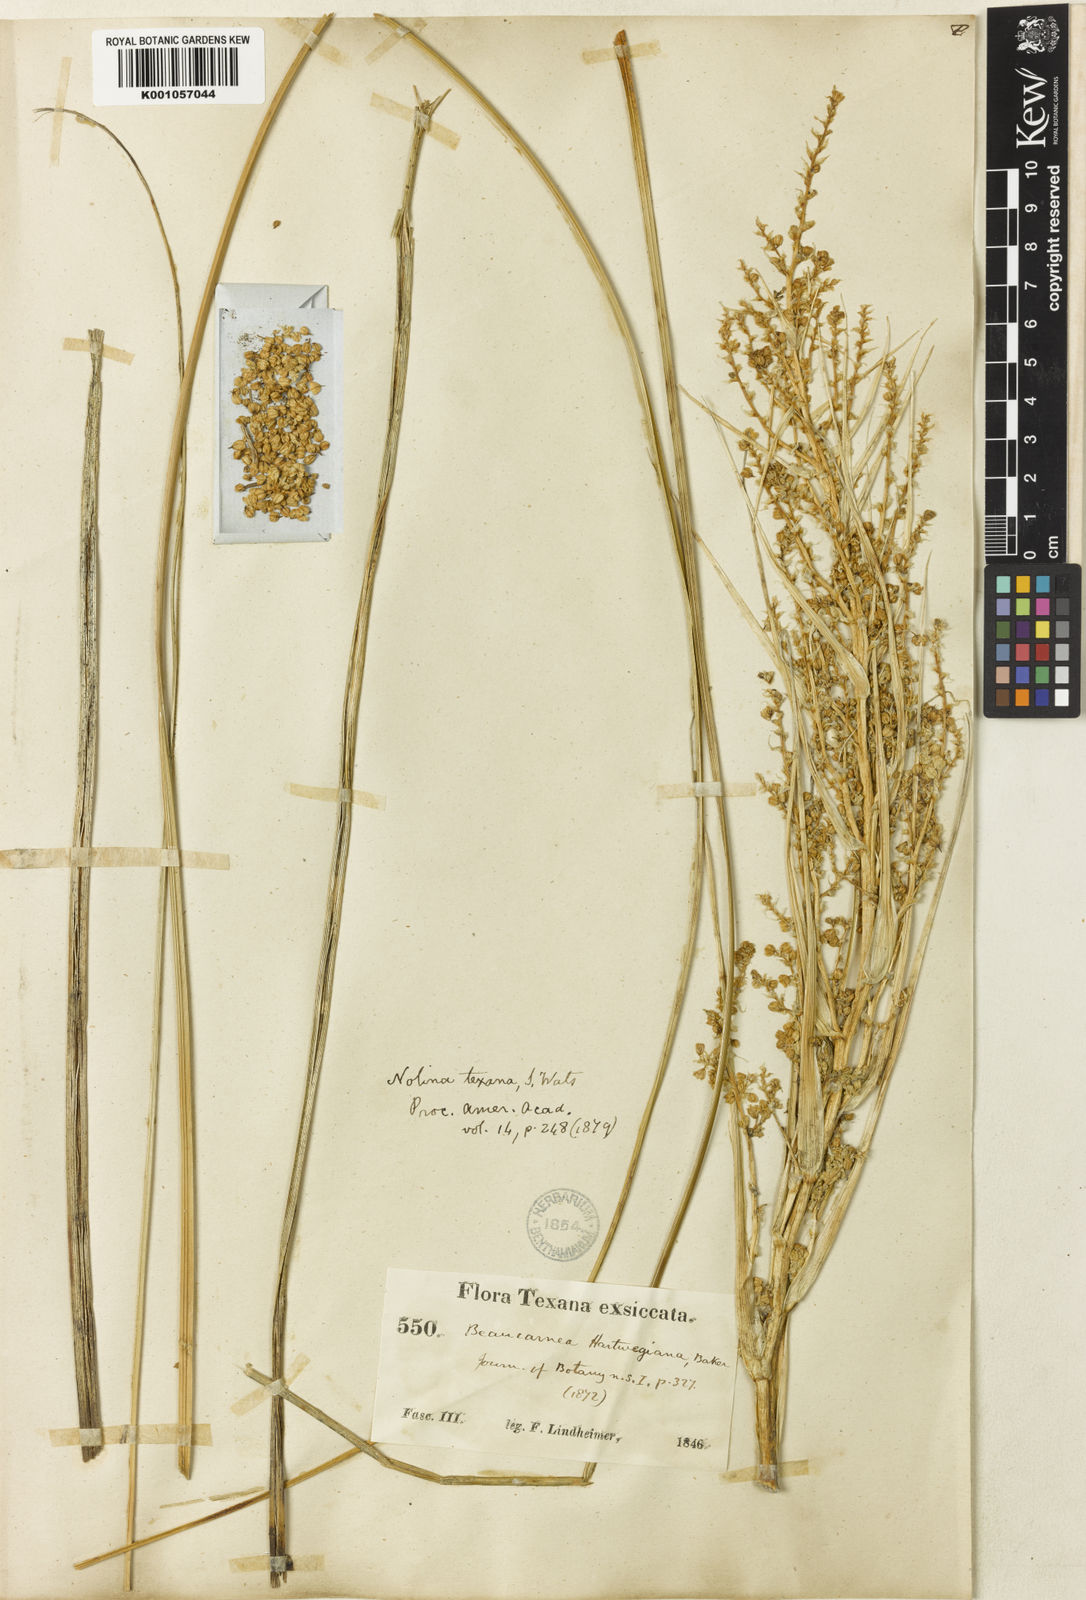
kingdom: Plantae
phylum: Tracheophyta
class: Liliopsida
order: Asparagales
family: Asparagaceae
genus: Nolina
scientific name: Nolina texana
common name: Texas sacahuiste
